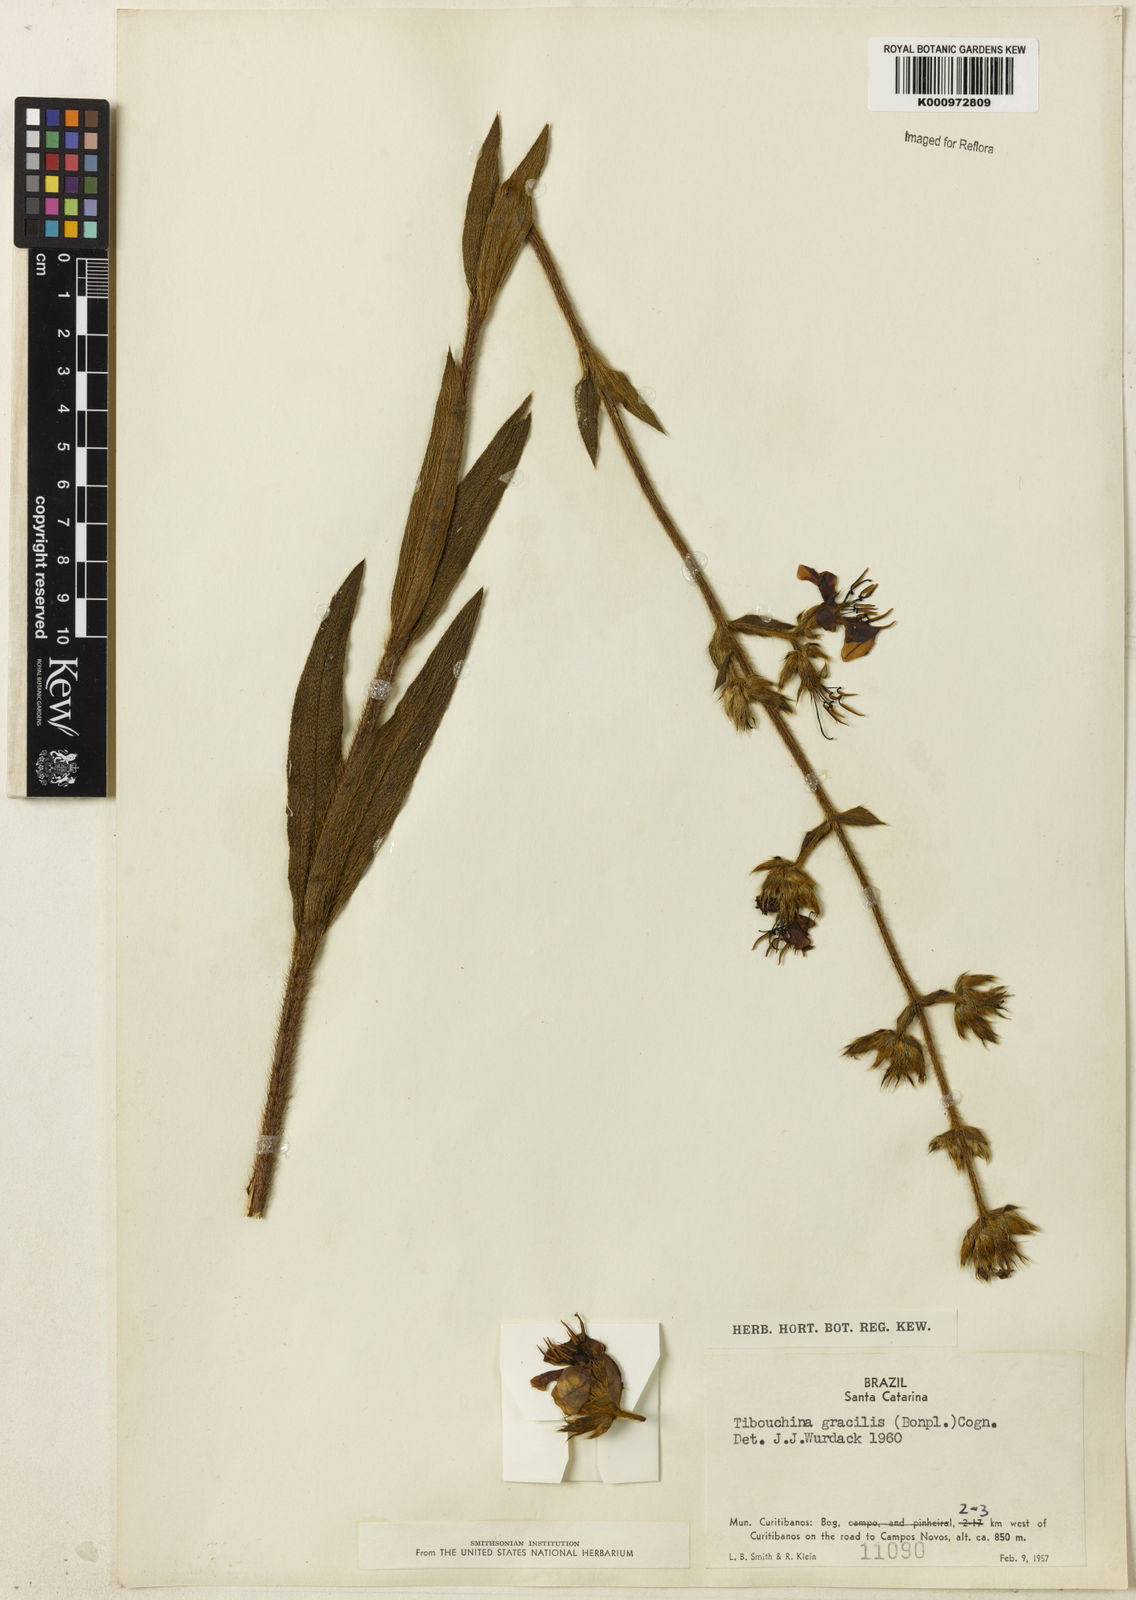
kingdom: Plantae
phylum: Tracheophyta
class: Magnoliopsida
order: Myrtales
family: Melastomataceae
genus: Chaetogastra
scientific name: Chaetogastra gracilis
